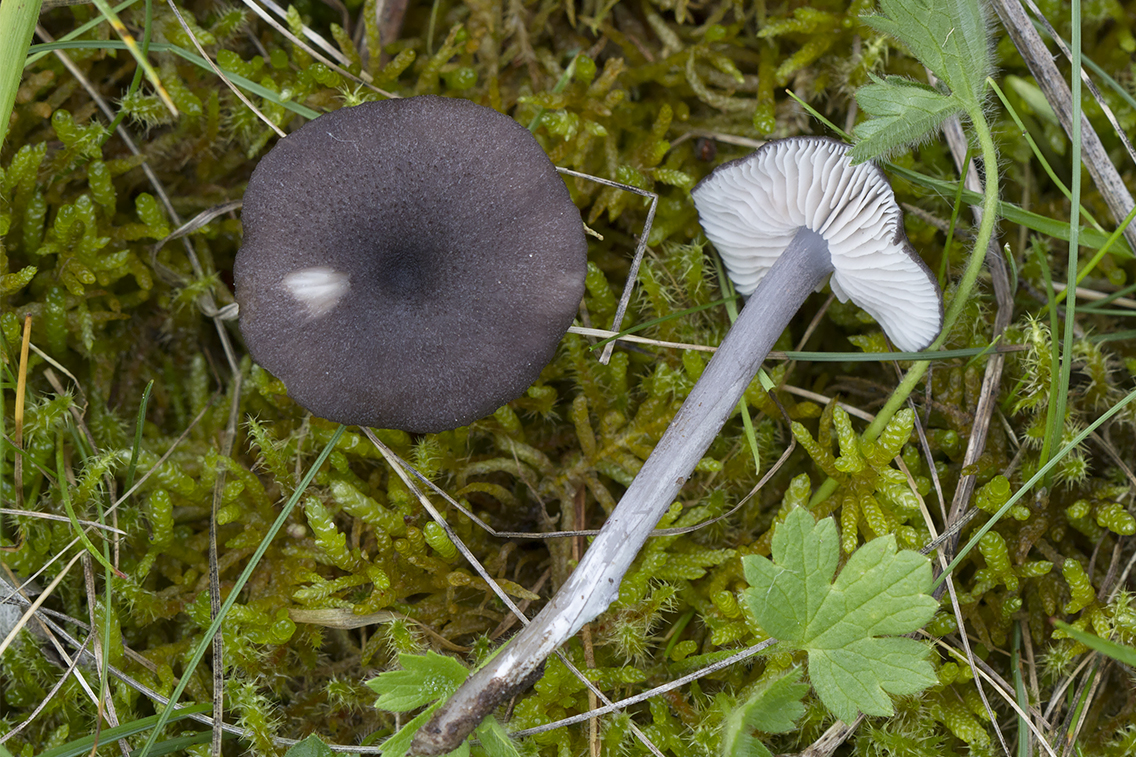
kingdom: Fungi
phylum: Basidiomycota
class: Agaricomycetes
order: Agaricales
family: Entolomataceae
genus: Entoloma
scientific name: Entoloma porphyrogriseum
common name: porfyrgrå rødblad
